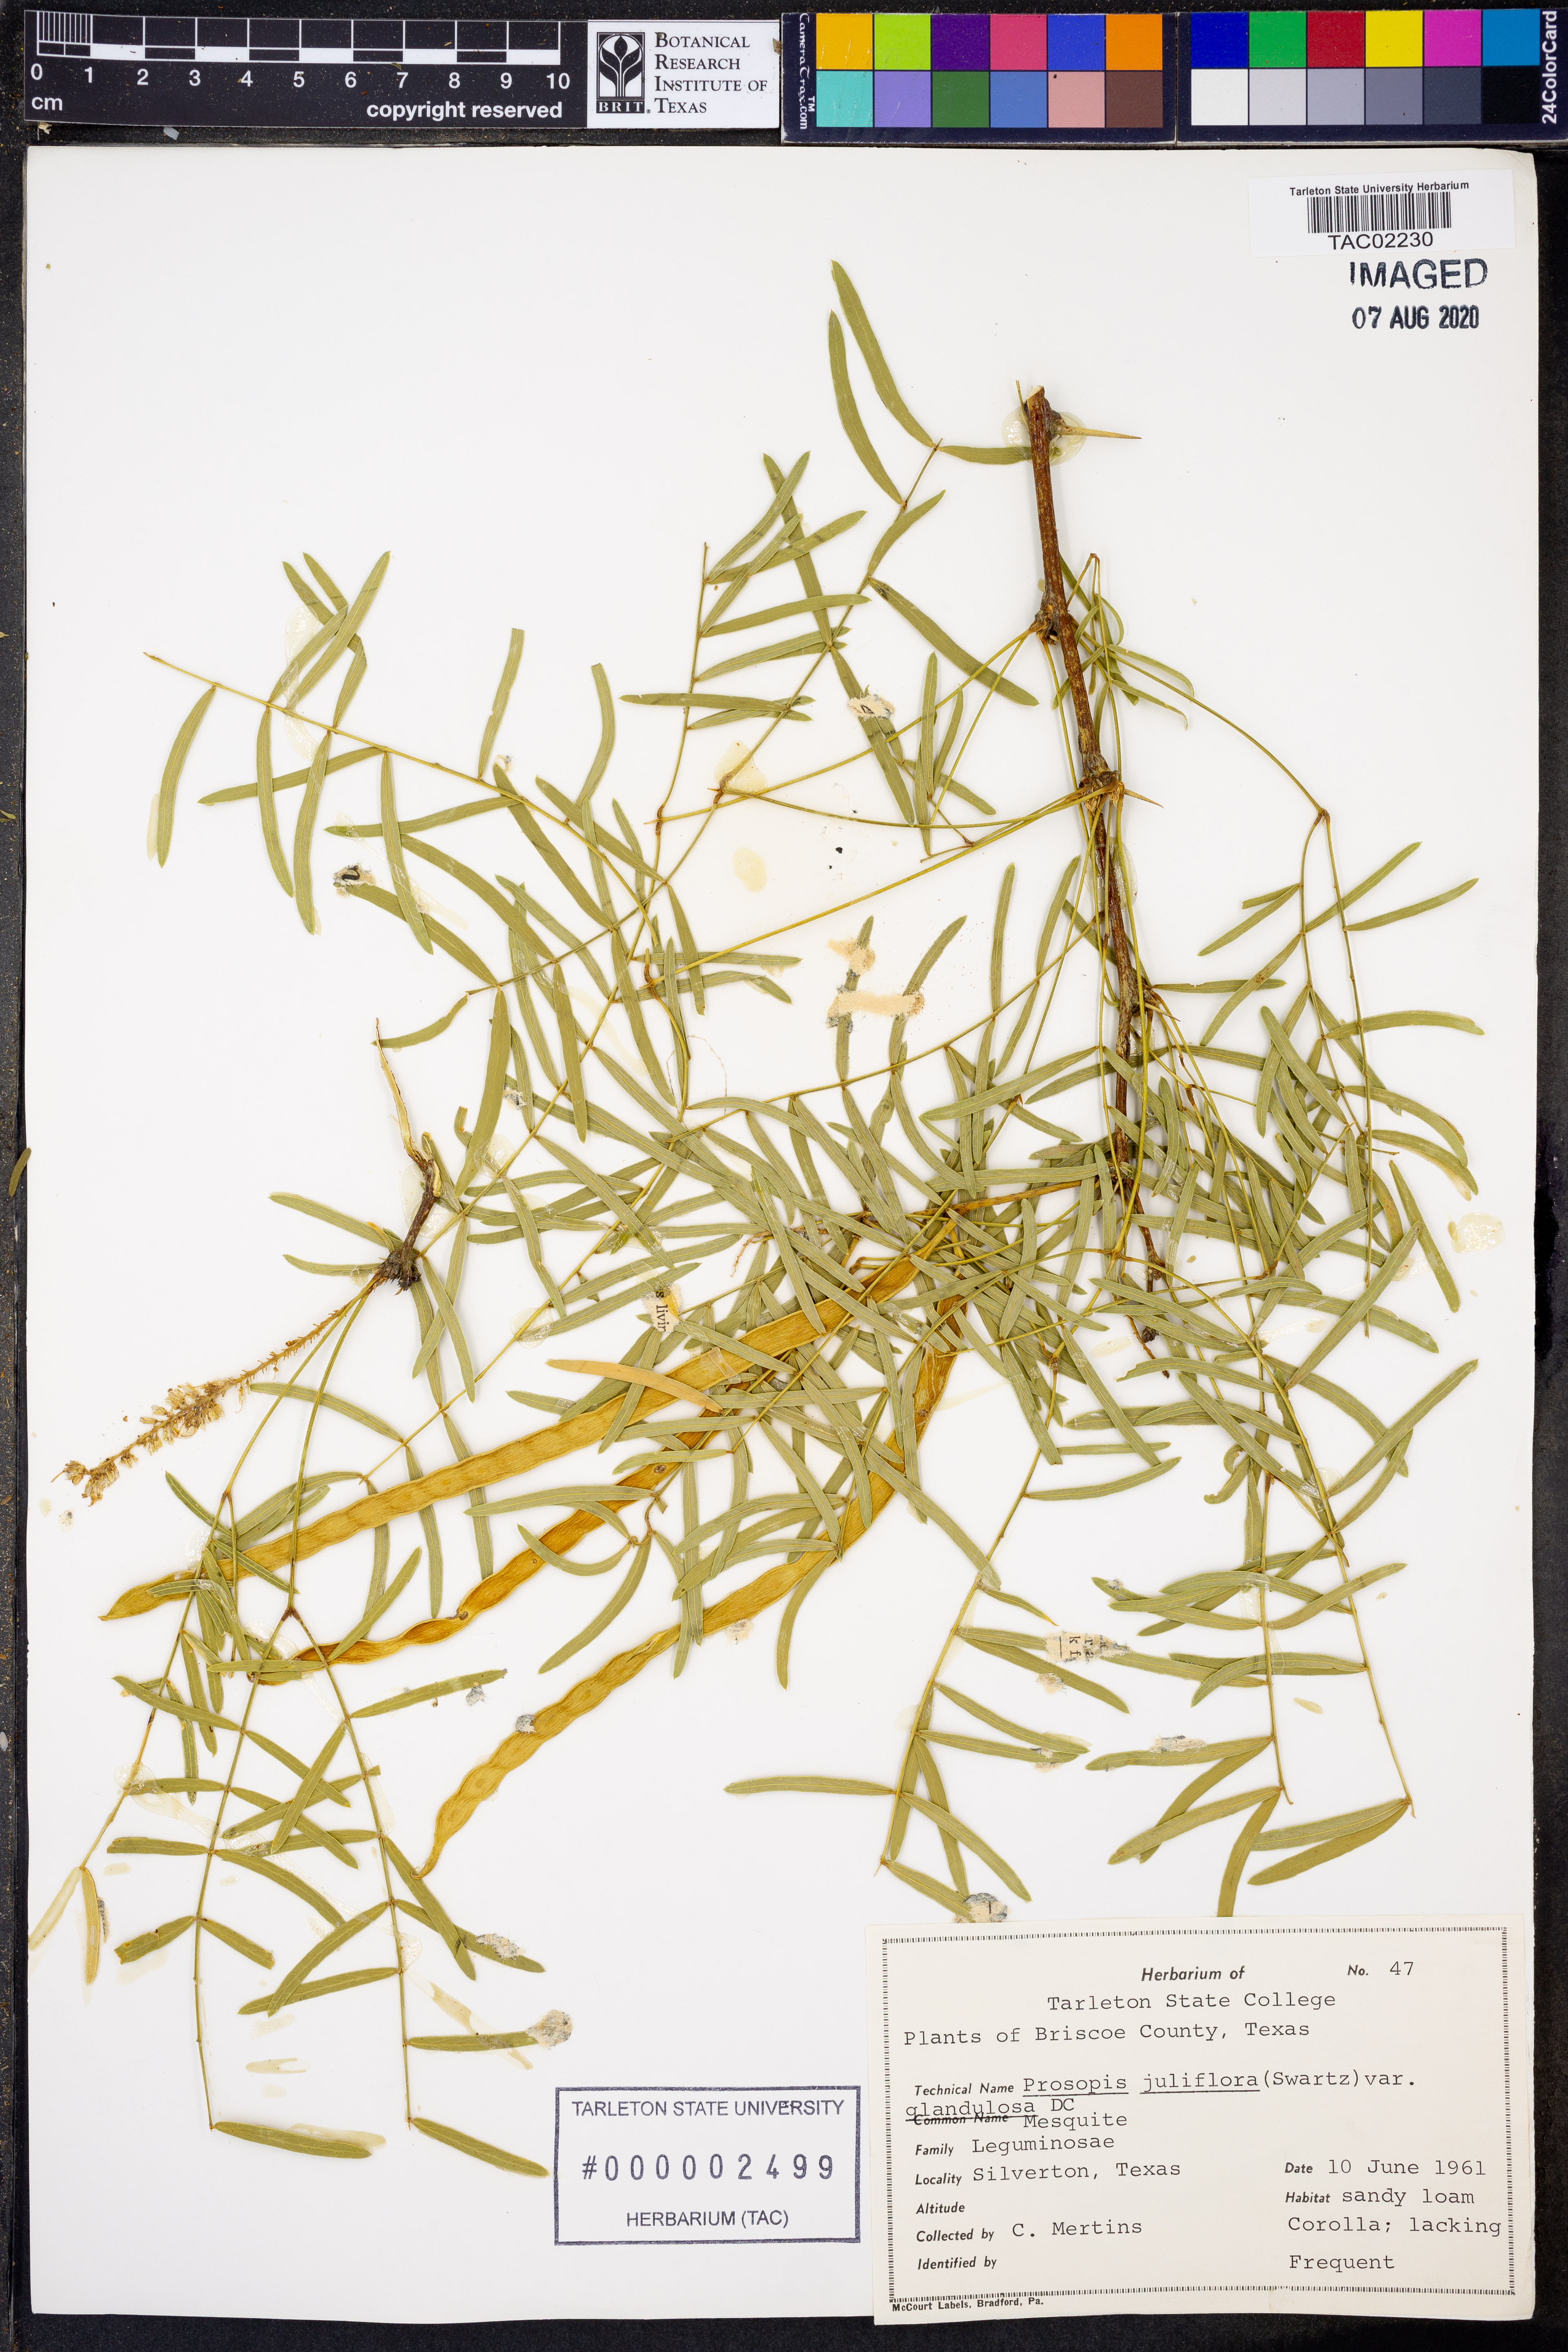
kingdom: Plantae
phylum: Tracheophyta
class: Magnoliopsida
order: Fabales
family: Fabaceae
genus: Prosopis
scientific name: Prosopis glandulosa
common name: Honey mesquite
